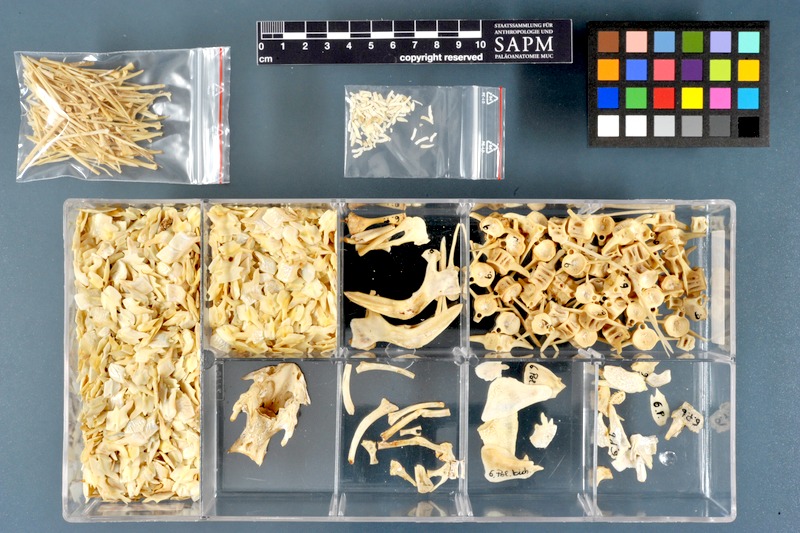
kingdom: Animalia
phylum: Chordata
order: Polypteriformes
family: Polypteridae
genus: Polypterus
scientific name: Polypterus bichir
